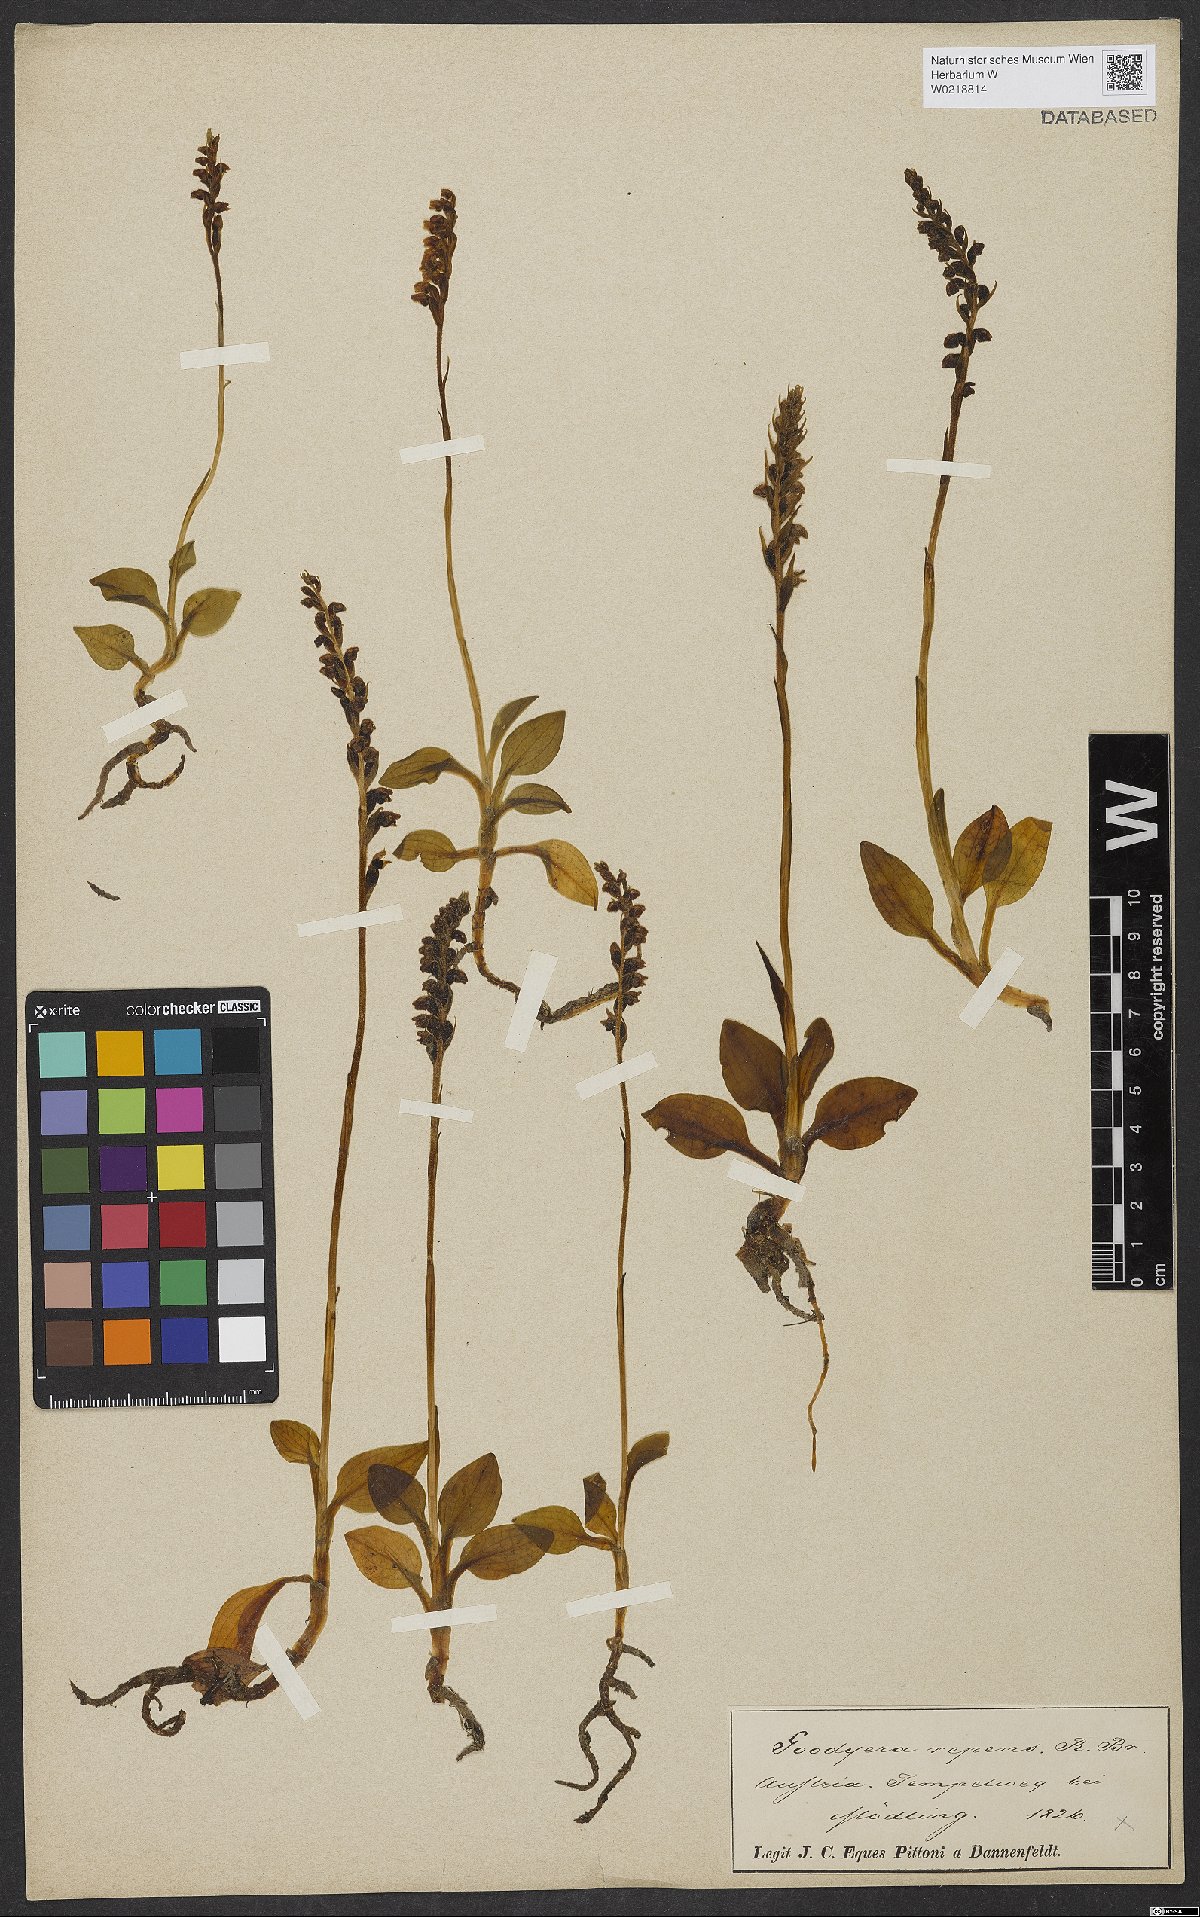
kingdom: Plantae
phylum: Tracheophyta
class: Liliopsida
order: Asparagales
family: Orchidaceae
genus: Goodyera
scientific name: Goodyera repens
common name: Creeping lady's-tresses
